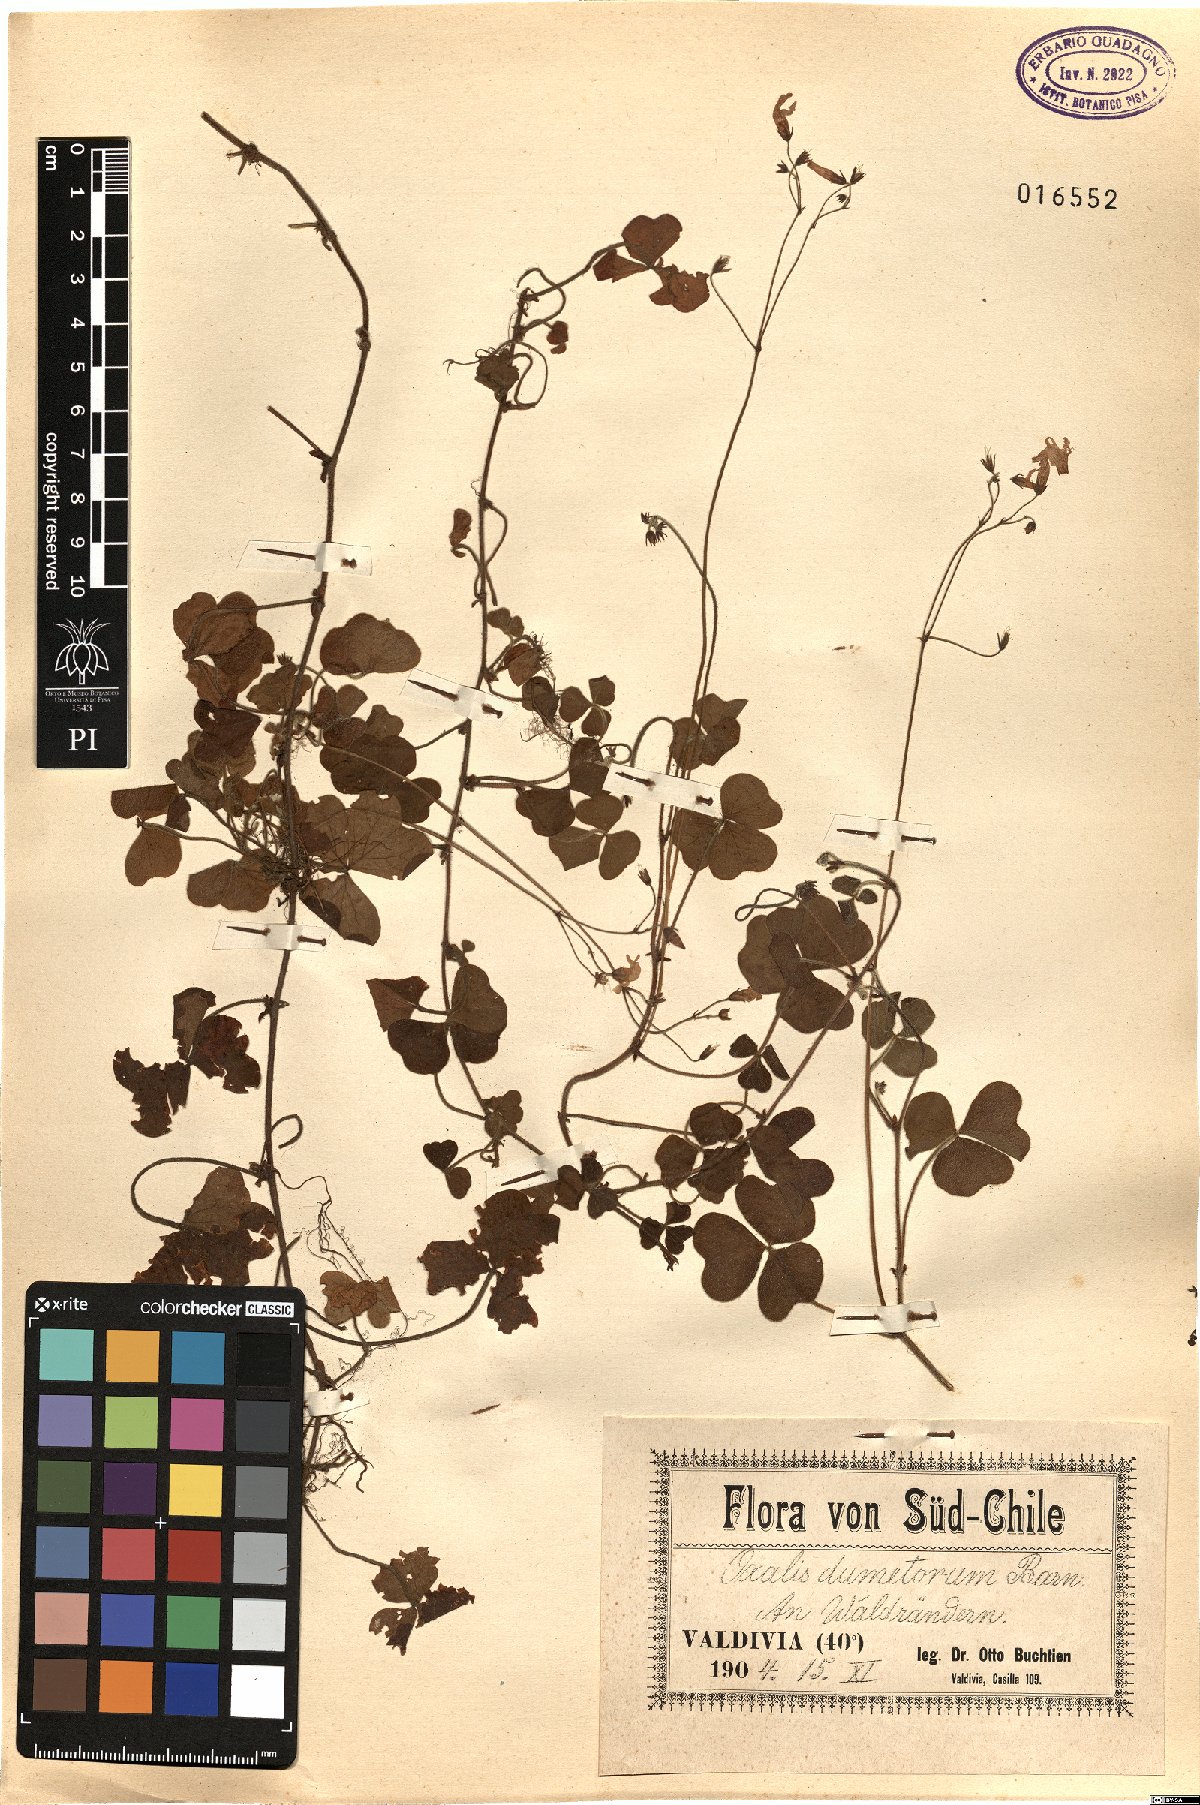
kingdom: Plantae
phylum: Tracheophyta
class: Magnoliopsida
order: Oxalidales
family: Oxalidaceae
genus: Oxalis
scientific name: Oxalis dumetorum
